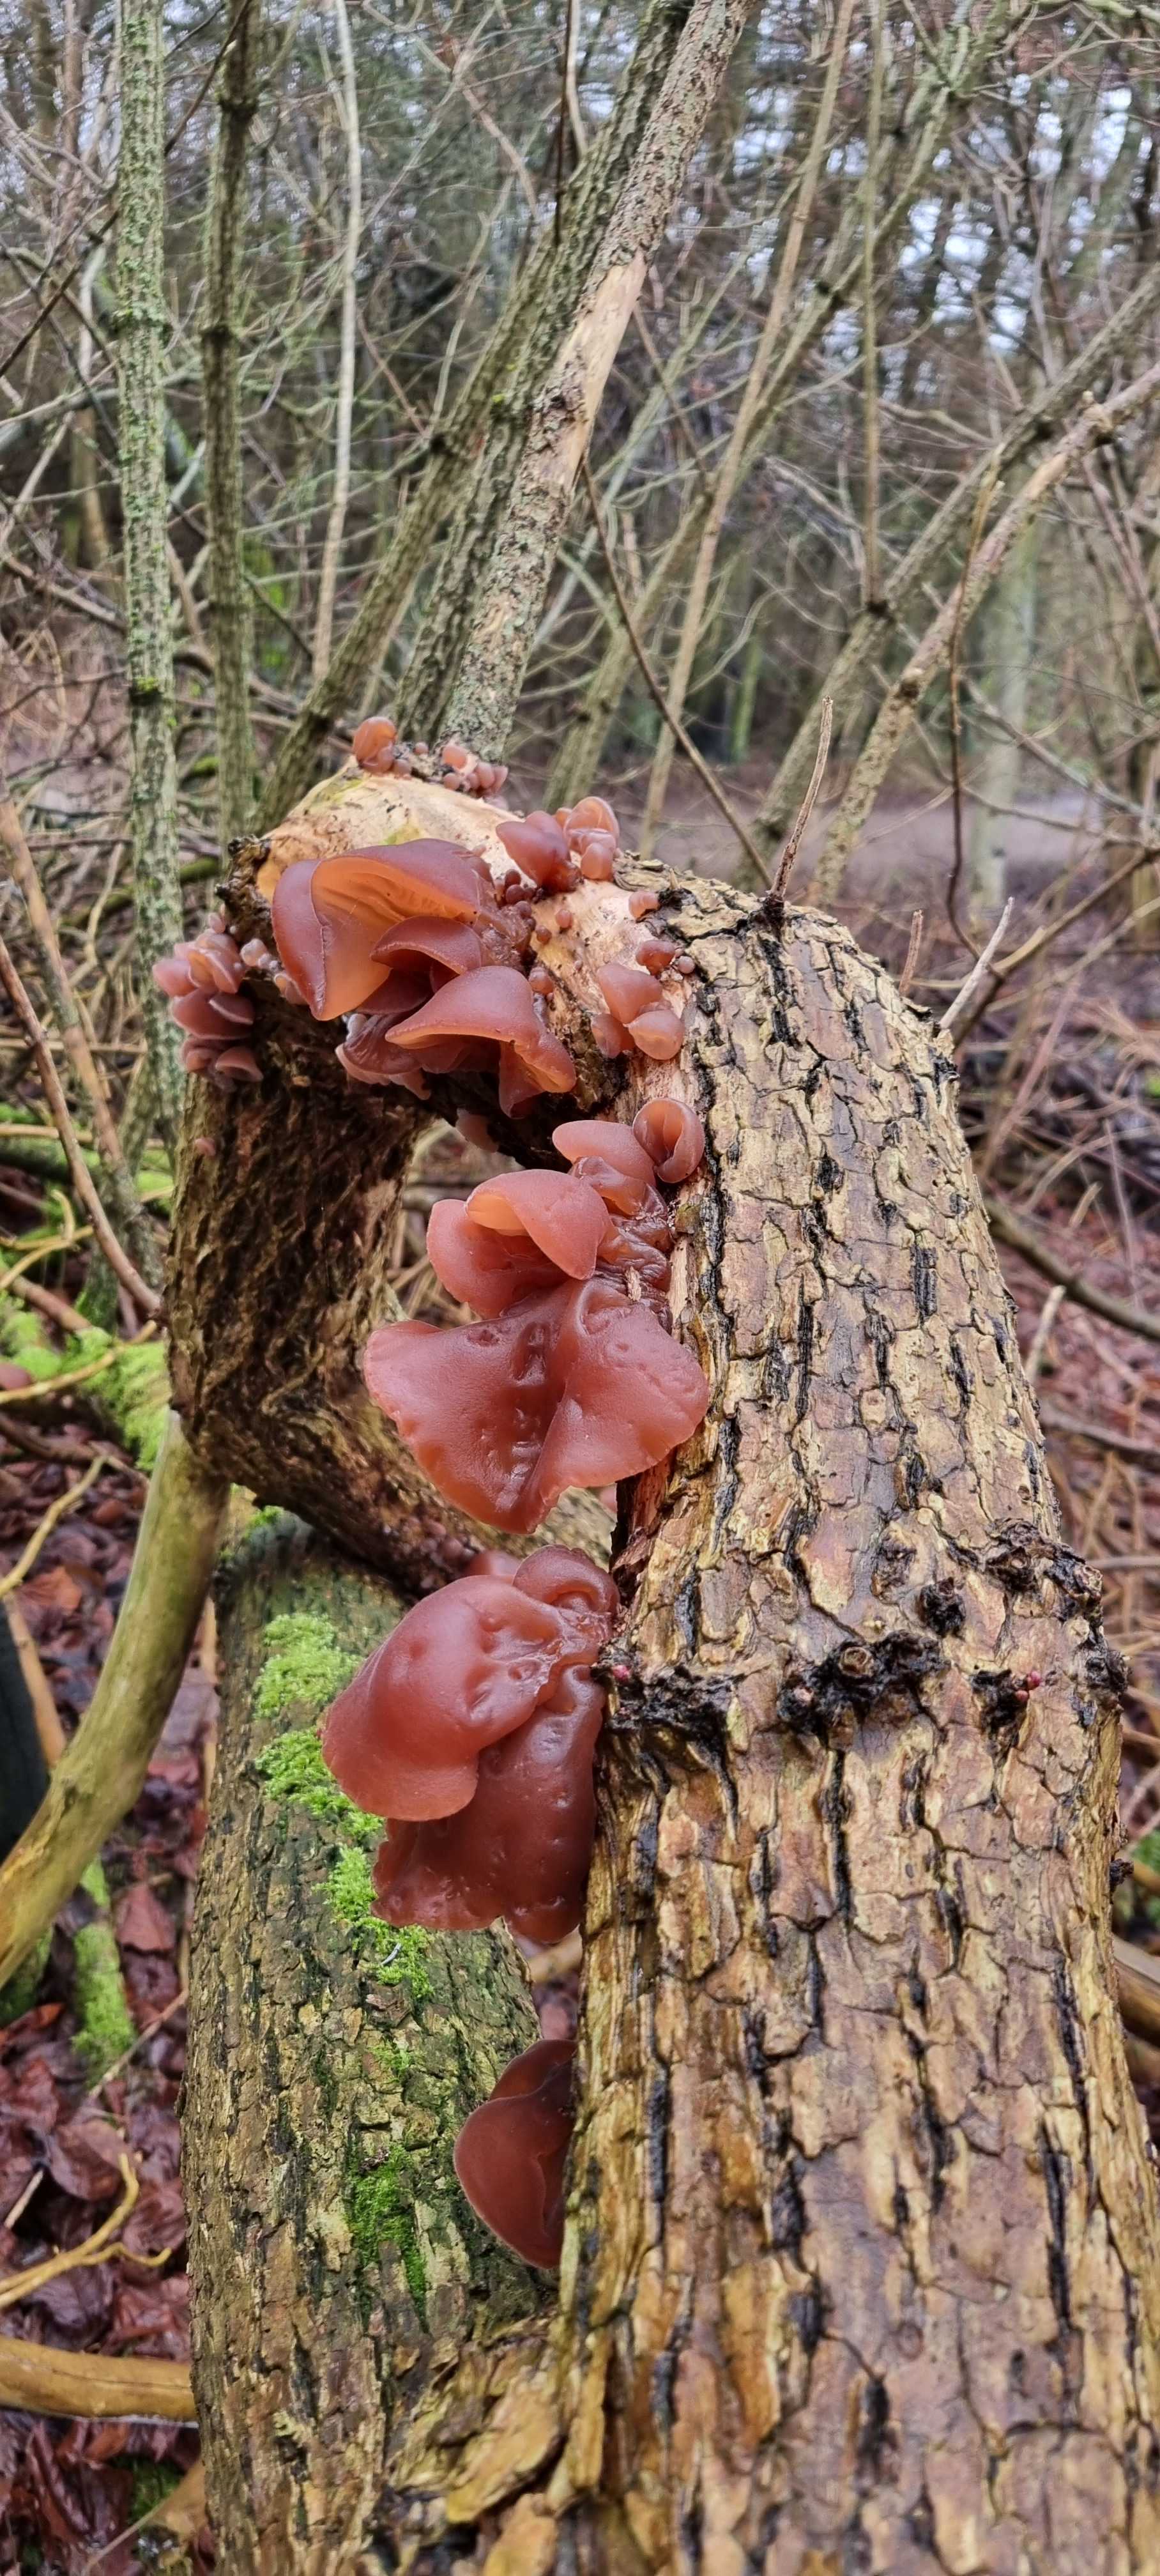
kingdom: Fungi
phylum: Basidiomycota
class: Agaricomycetes
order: Auriculariales
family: Auriculariaceae
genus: Auricularia
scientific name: Auricularia auricula-judae
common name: almindelig judasøre
